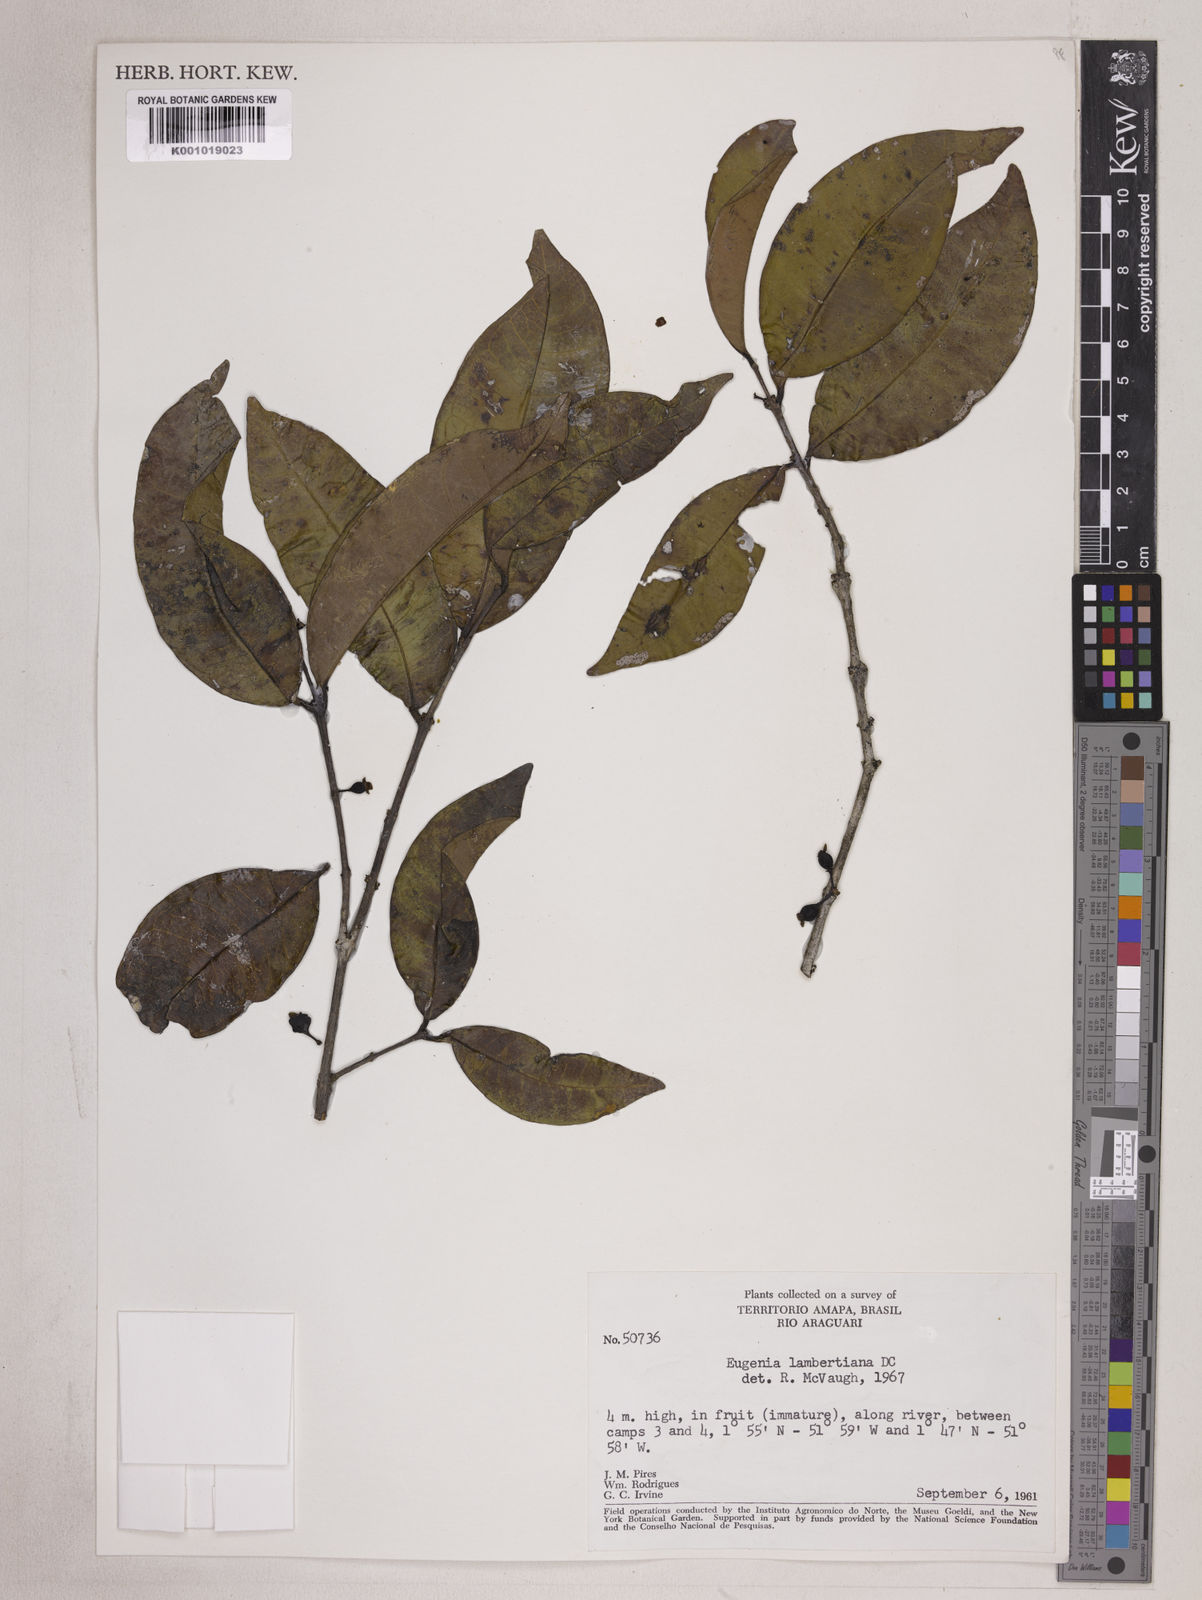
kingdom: Plantae
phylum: Tracheophyta
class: Magnoliopsida
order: Myrtales
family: Myrtaceae
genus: Eugenia
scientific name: Eugenia lambertiana
